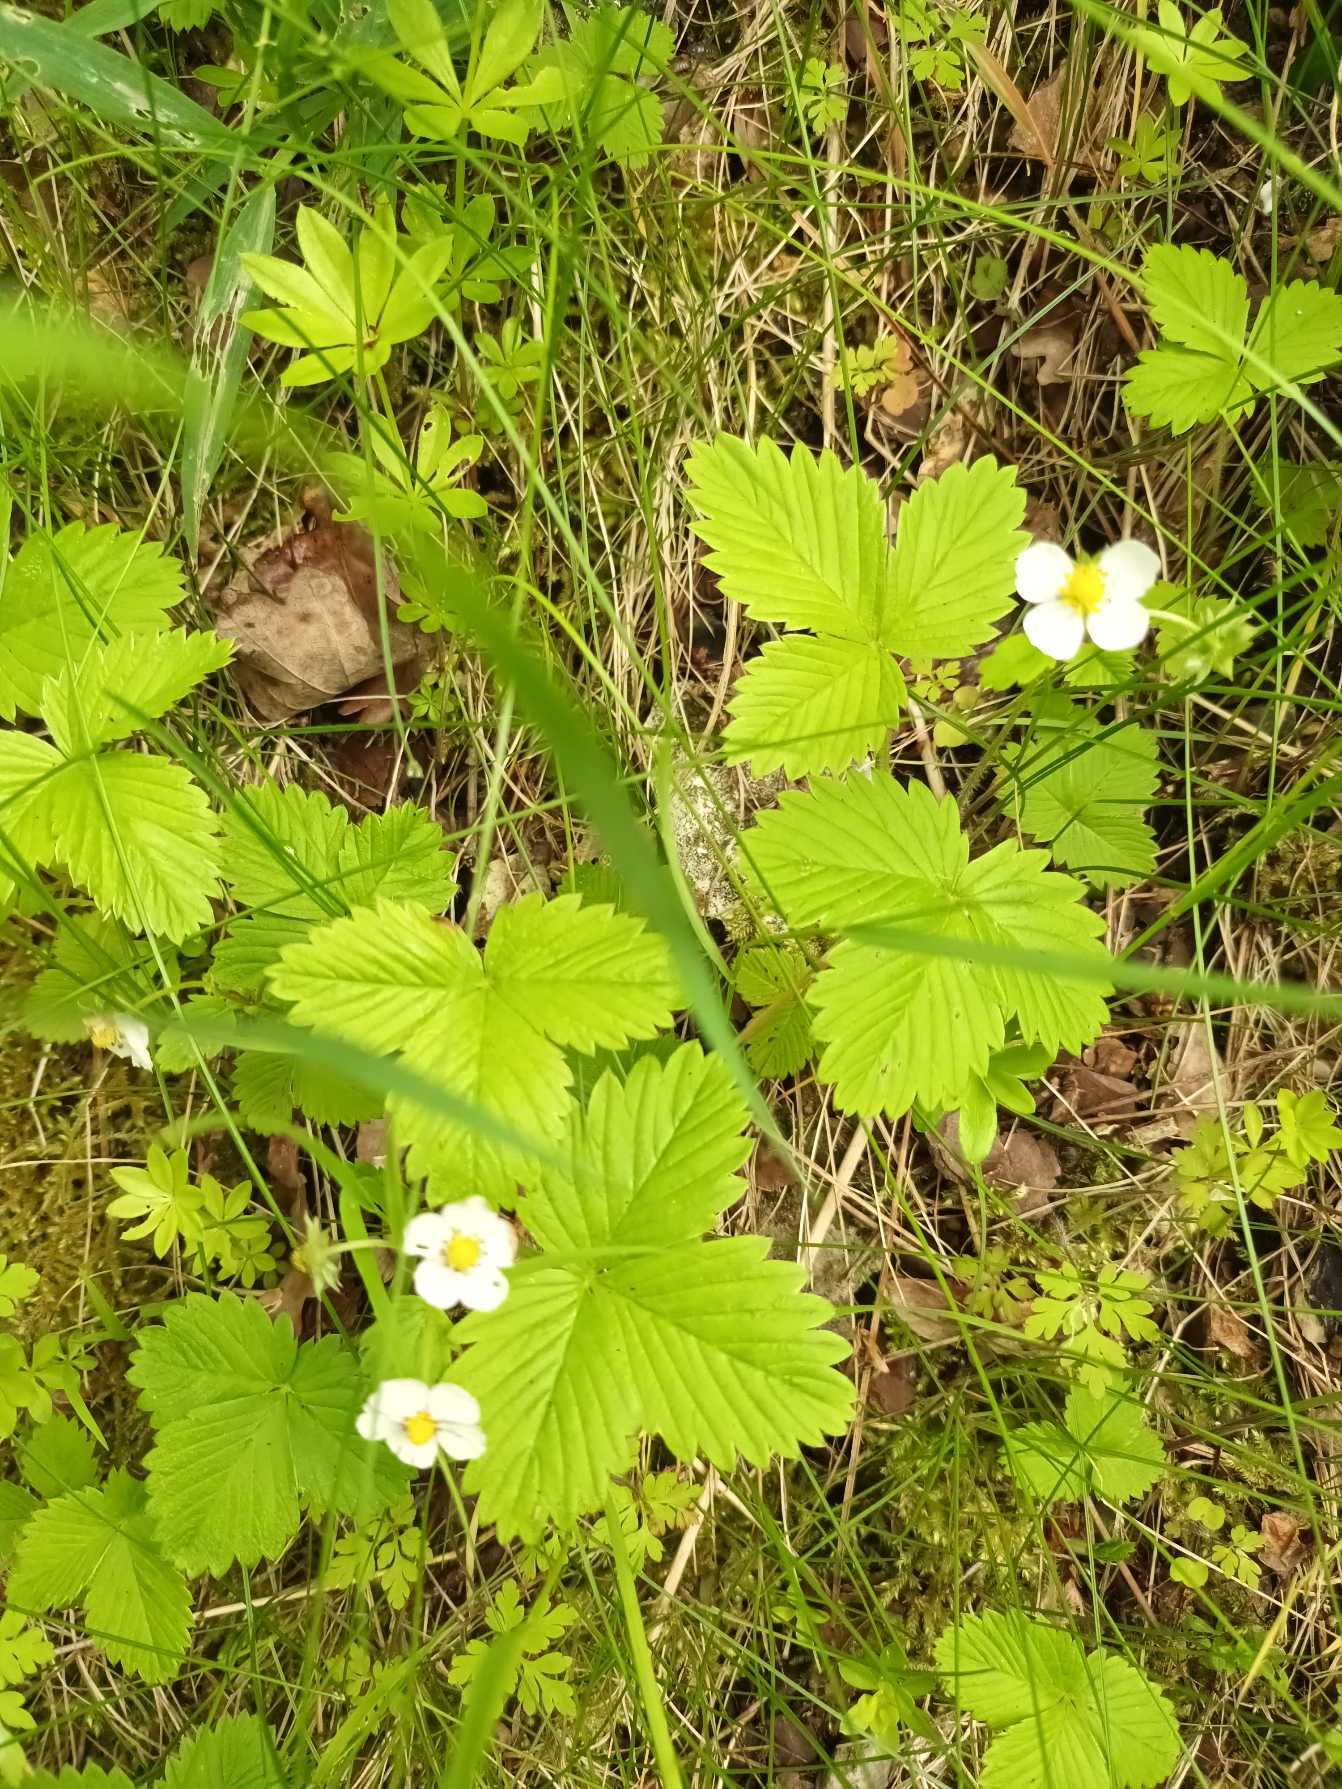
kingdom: Plantae
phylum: Tracheophyta
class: Magnoliopsida
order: Rosales
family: Rosaceae
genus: Fragaria
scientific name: Fragaria vesca
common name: Skov-jordbær
